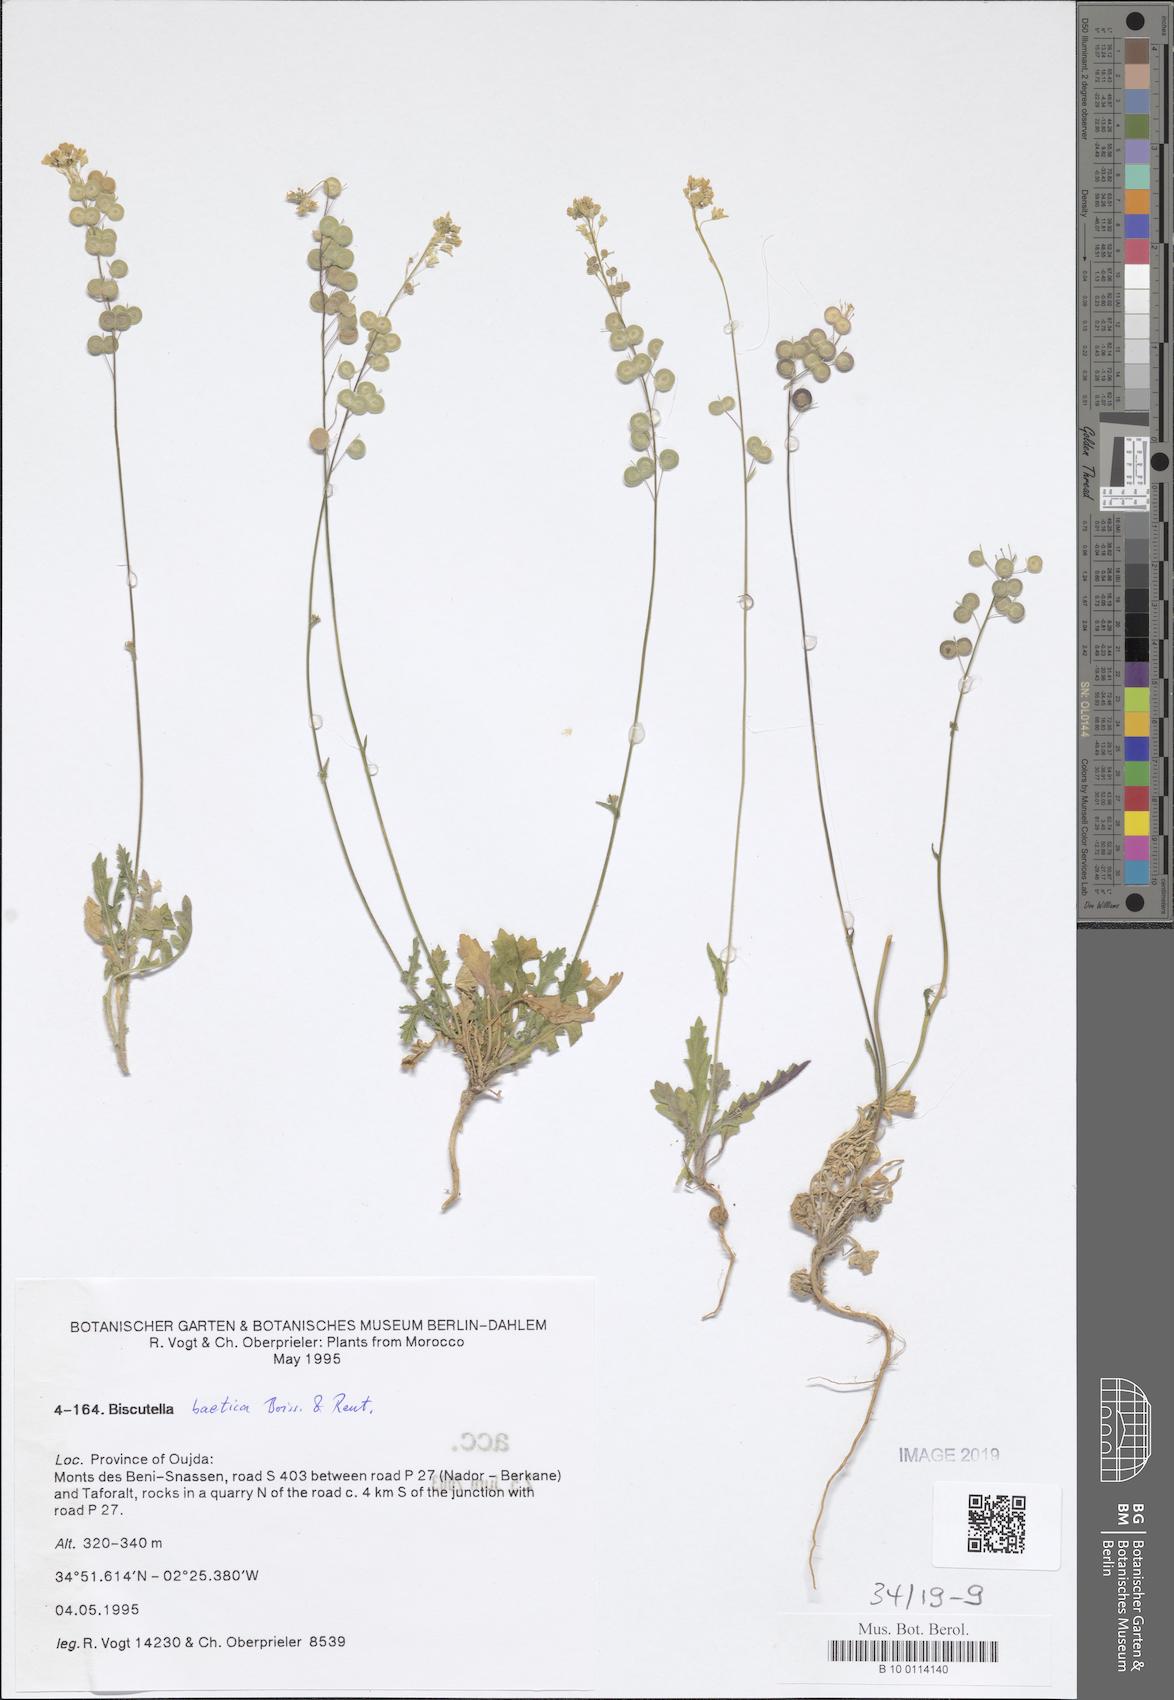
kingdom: Plantae
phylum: Tracheophyta
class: Magnoliopsida
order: Brassicales
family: Brassicaceae
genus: Biscutella
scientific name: Biscutella eriocarpa
